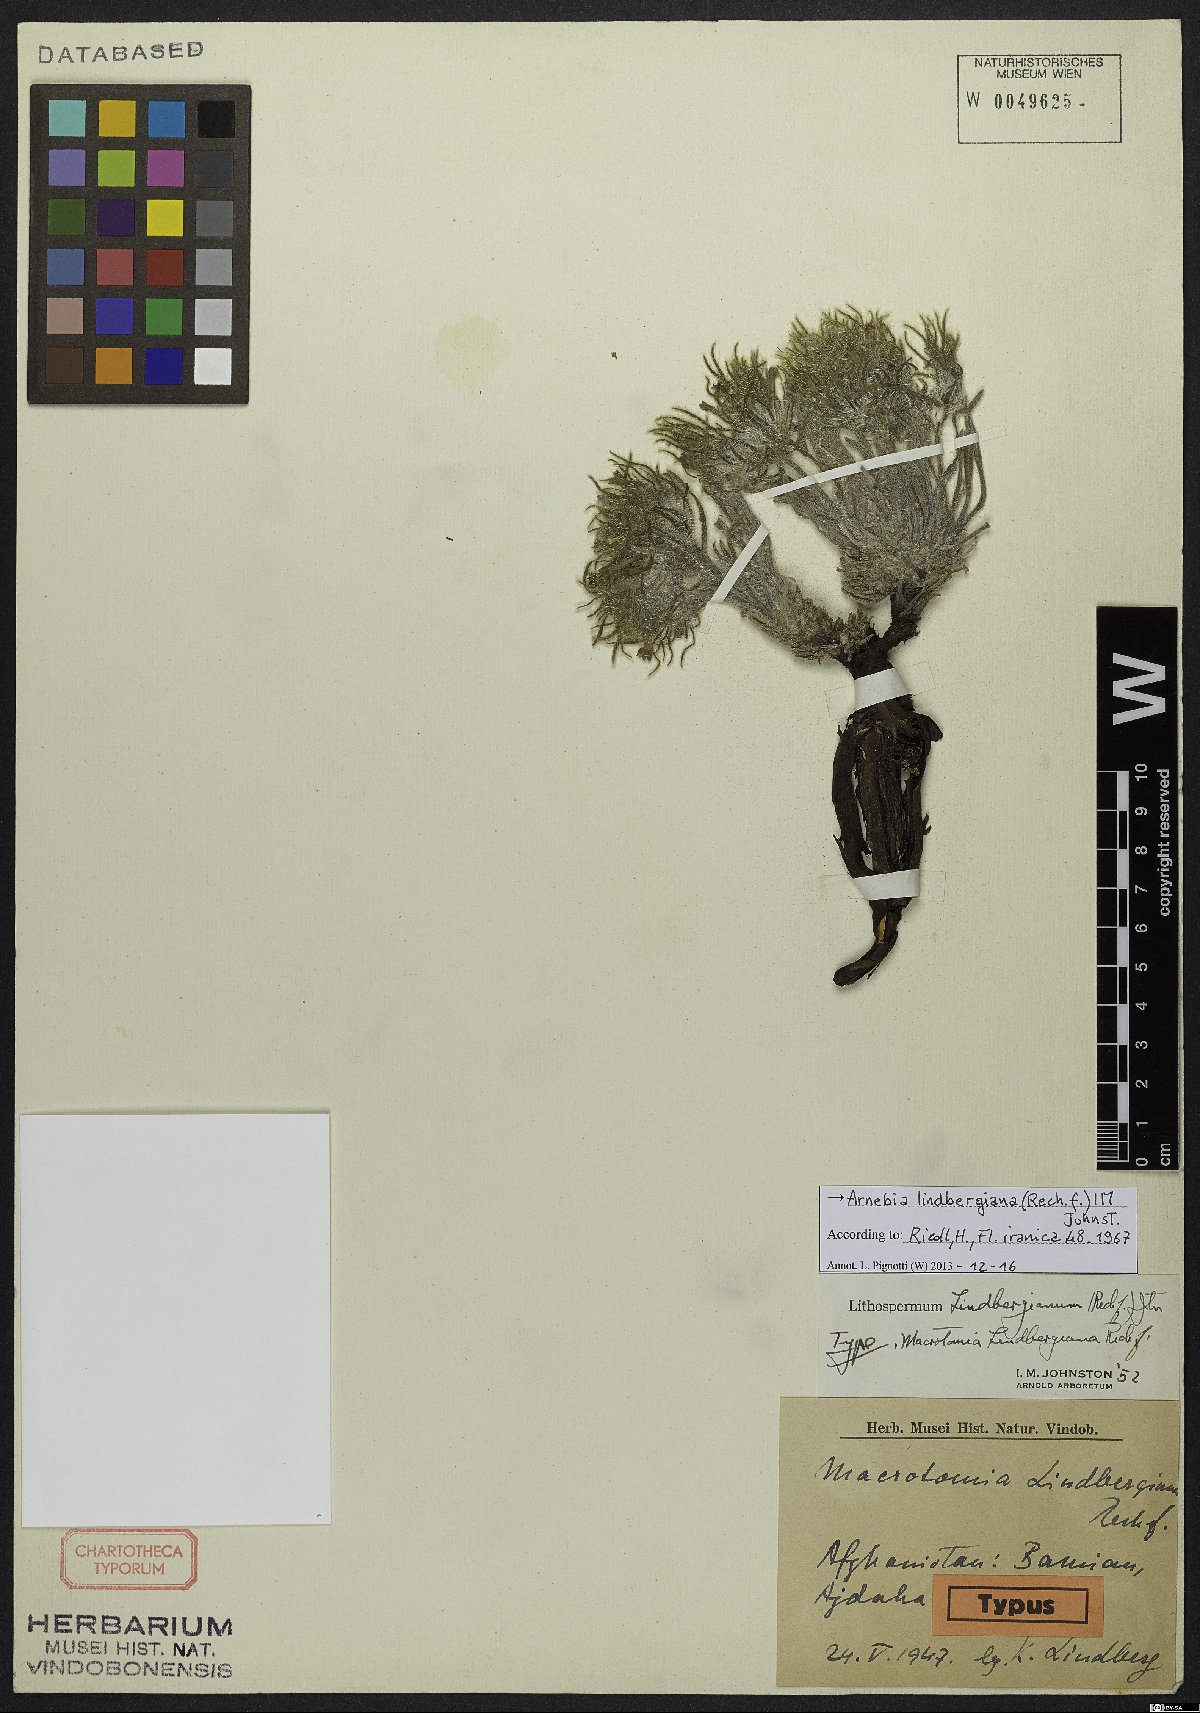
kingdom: Plantae
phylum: Tracheophyta
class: Magnoliopsida
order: Boraginales
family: Boraginaceae
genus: Arnebia
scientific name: Arnebia lindbergiana
